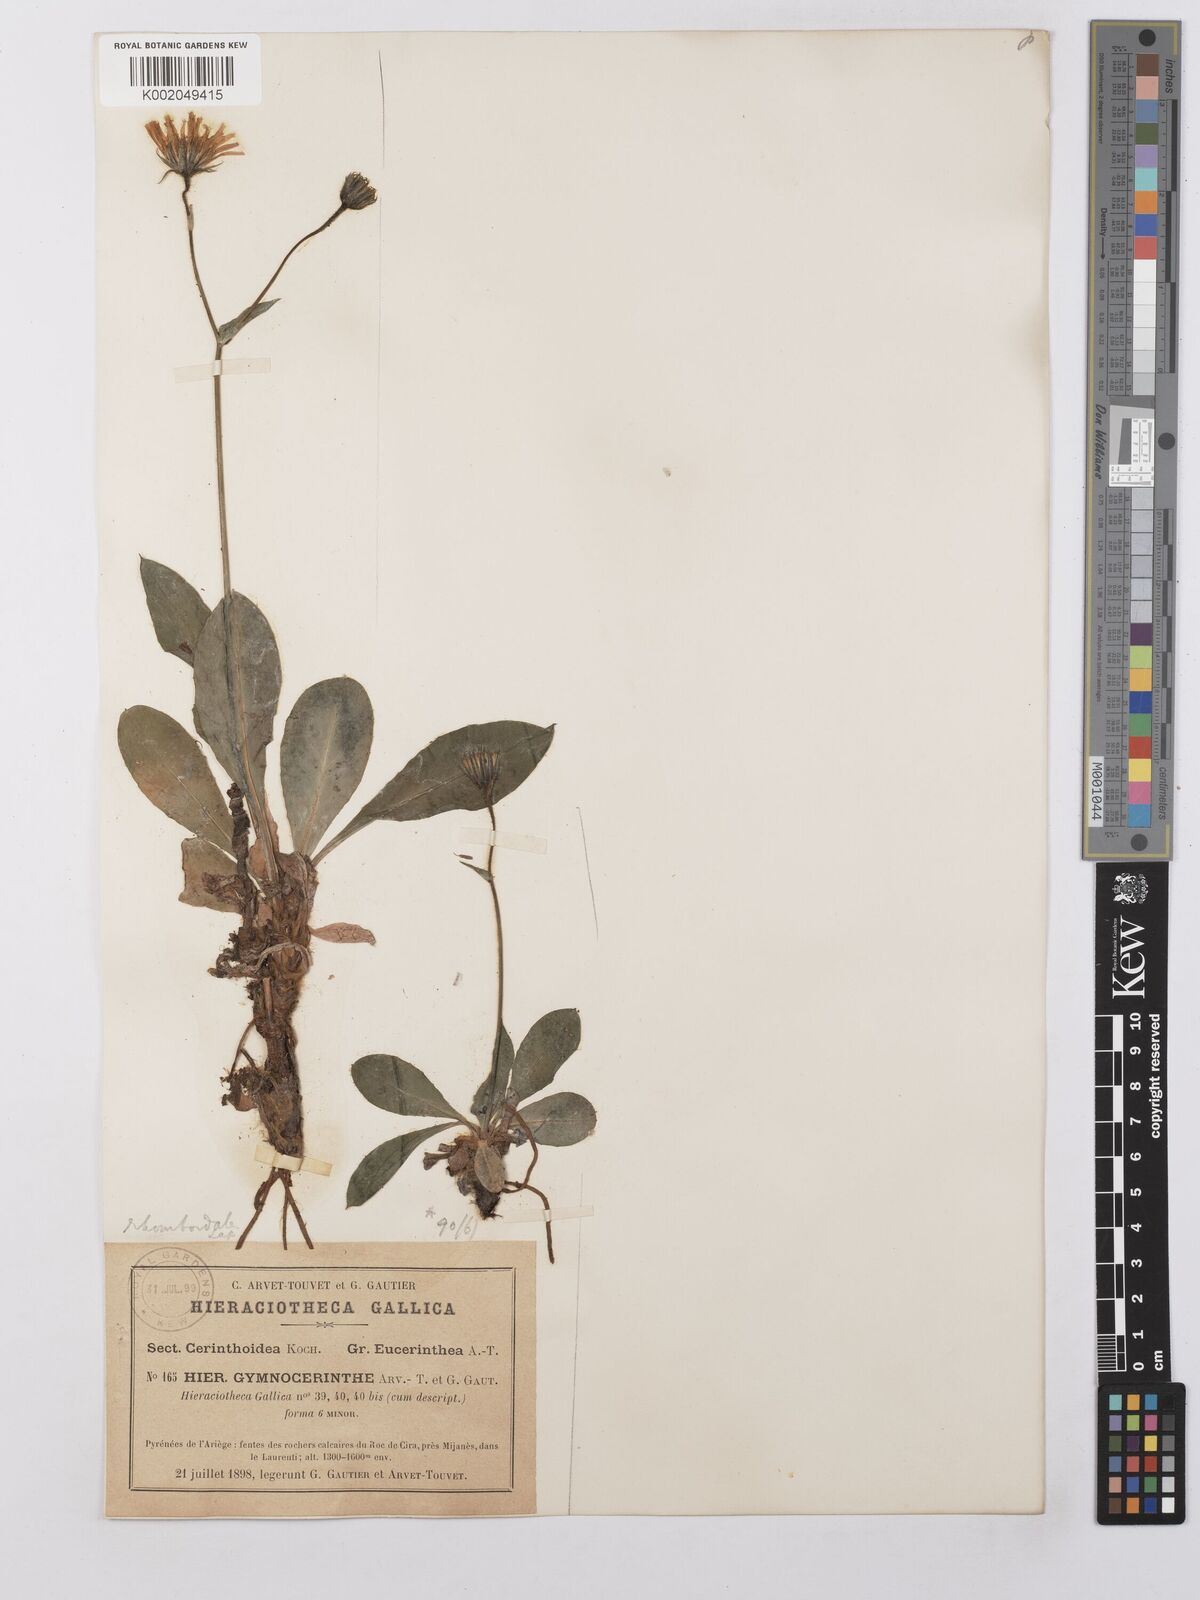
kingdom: Plantae
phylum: Tracheophyta
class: Magnoliopsida
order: Asterales
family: Asteraceae
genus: Hieracium
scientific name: Hieracium cerinthoides
